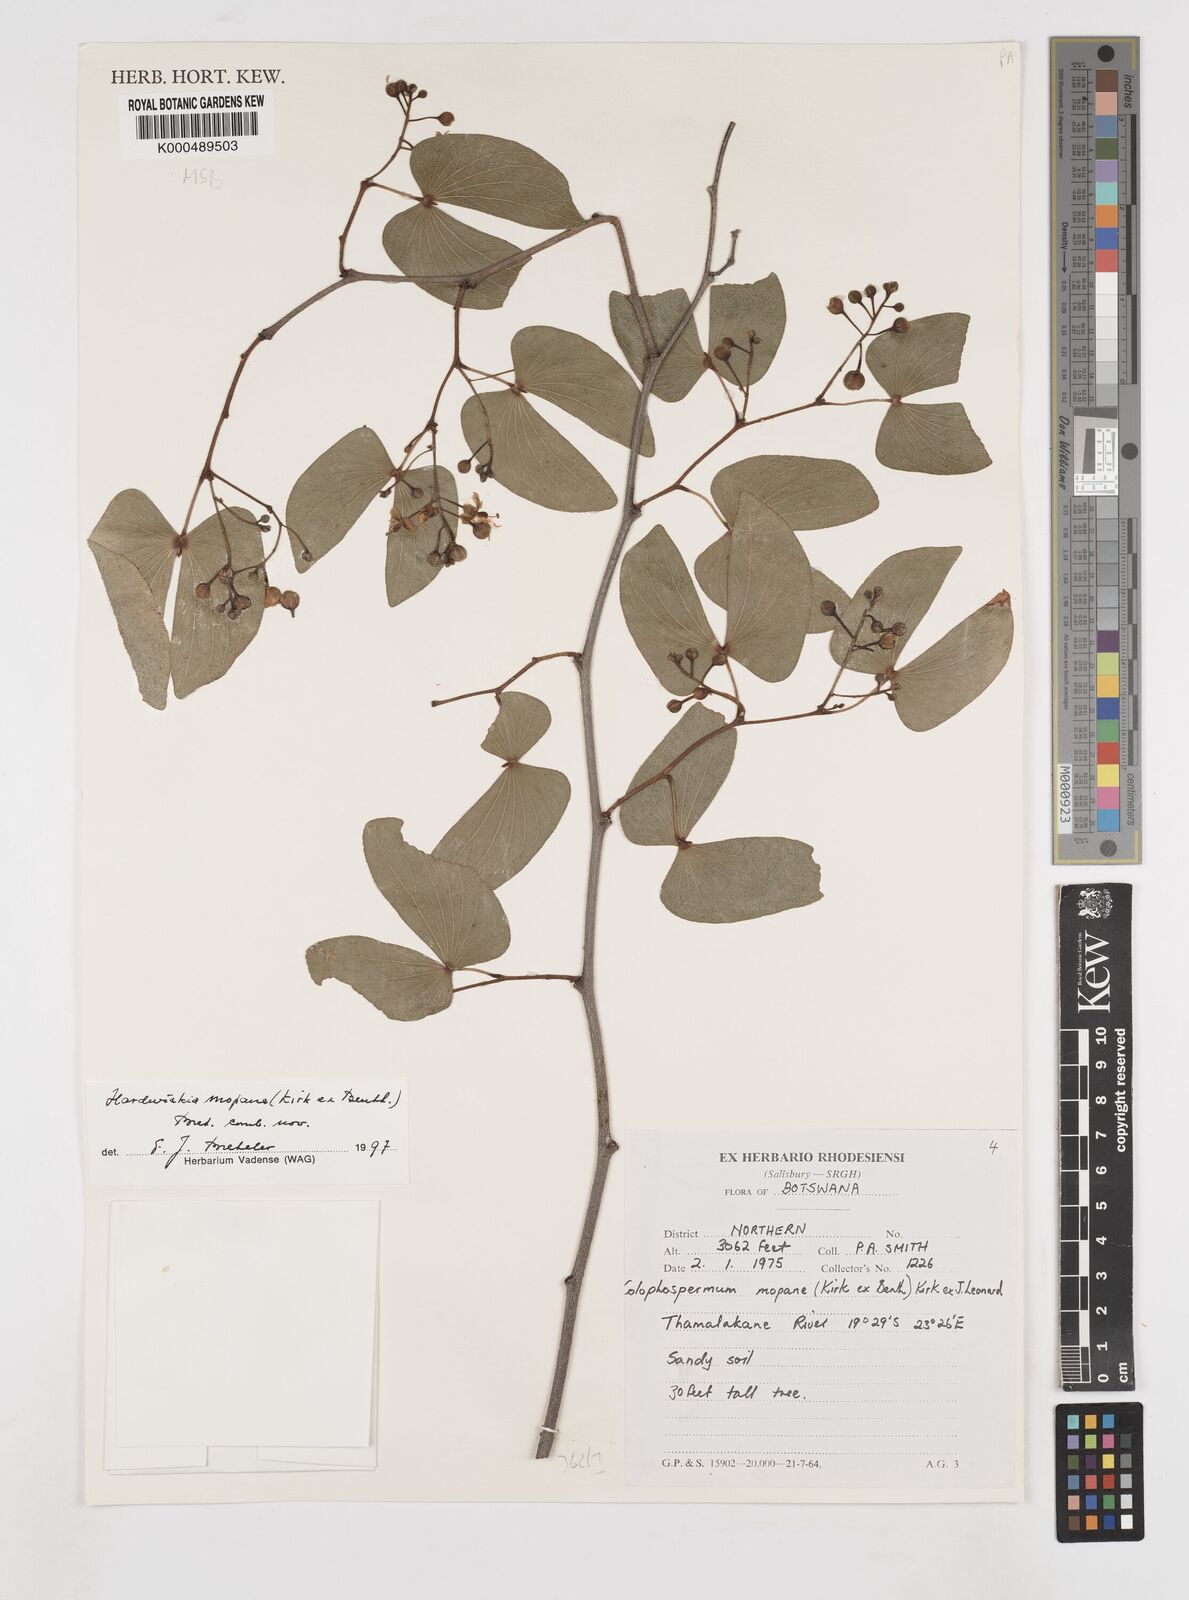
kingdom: Plantae
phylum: Tracheophyta
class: Magnoliopsida
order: Fabales
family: Fabaceae
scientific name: Fabaceae
